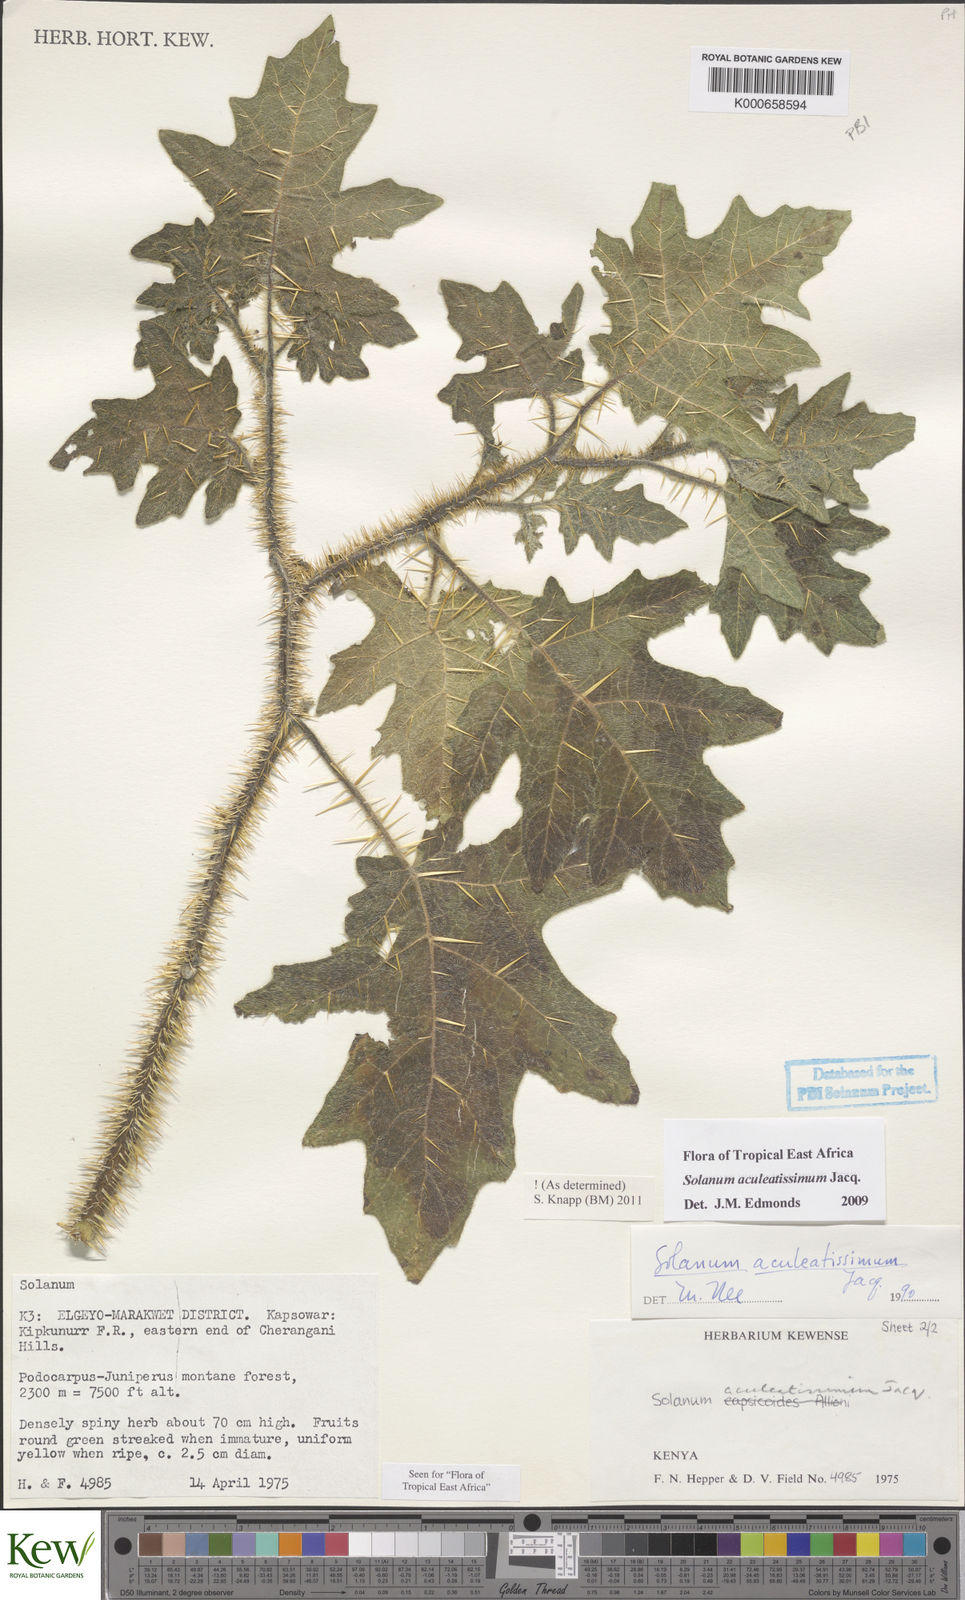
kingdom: Plantae
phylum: Tracheophyta
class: Magnoliopsida
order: Solanales
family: Solanaceae
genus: Solanum
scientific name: Solanum aculeatissimum
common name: Dutch eggplant
